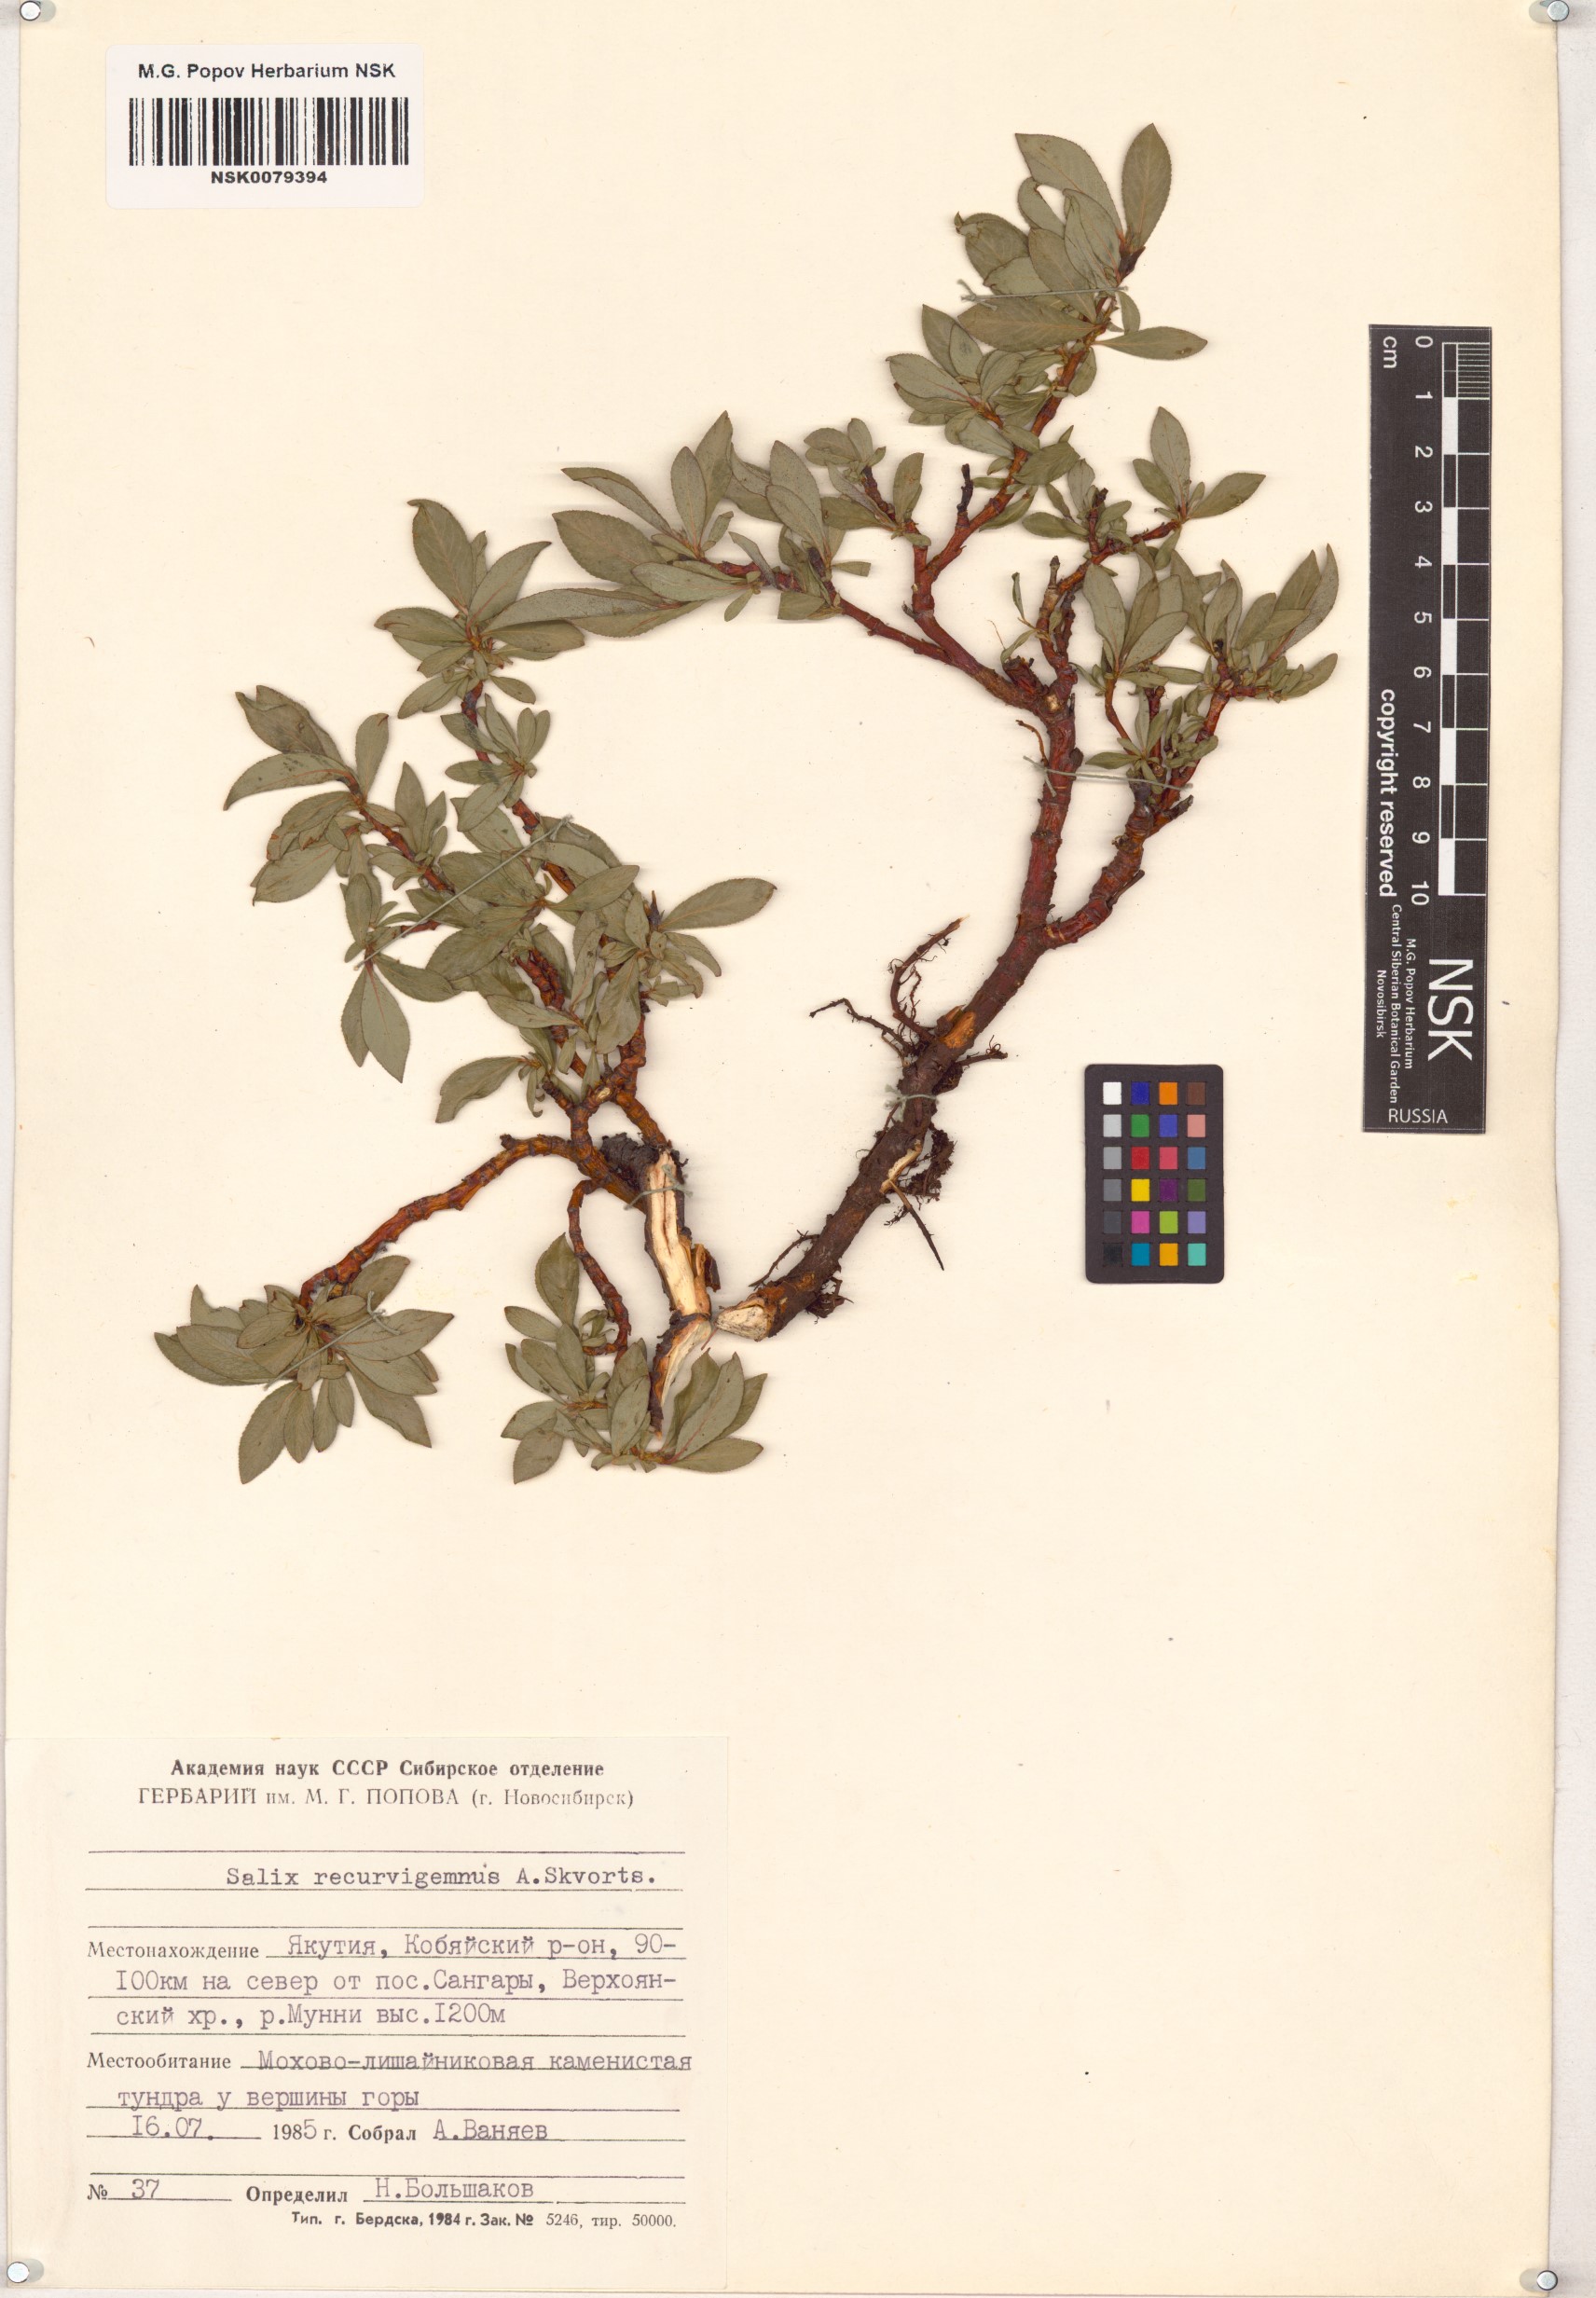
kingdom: Plantae
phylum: Tracheophyta
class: Magnoliopsida
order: Malpighiales
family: Salicaceae
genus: Salix
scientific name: Salix recurvigemmata
